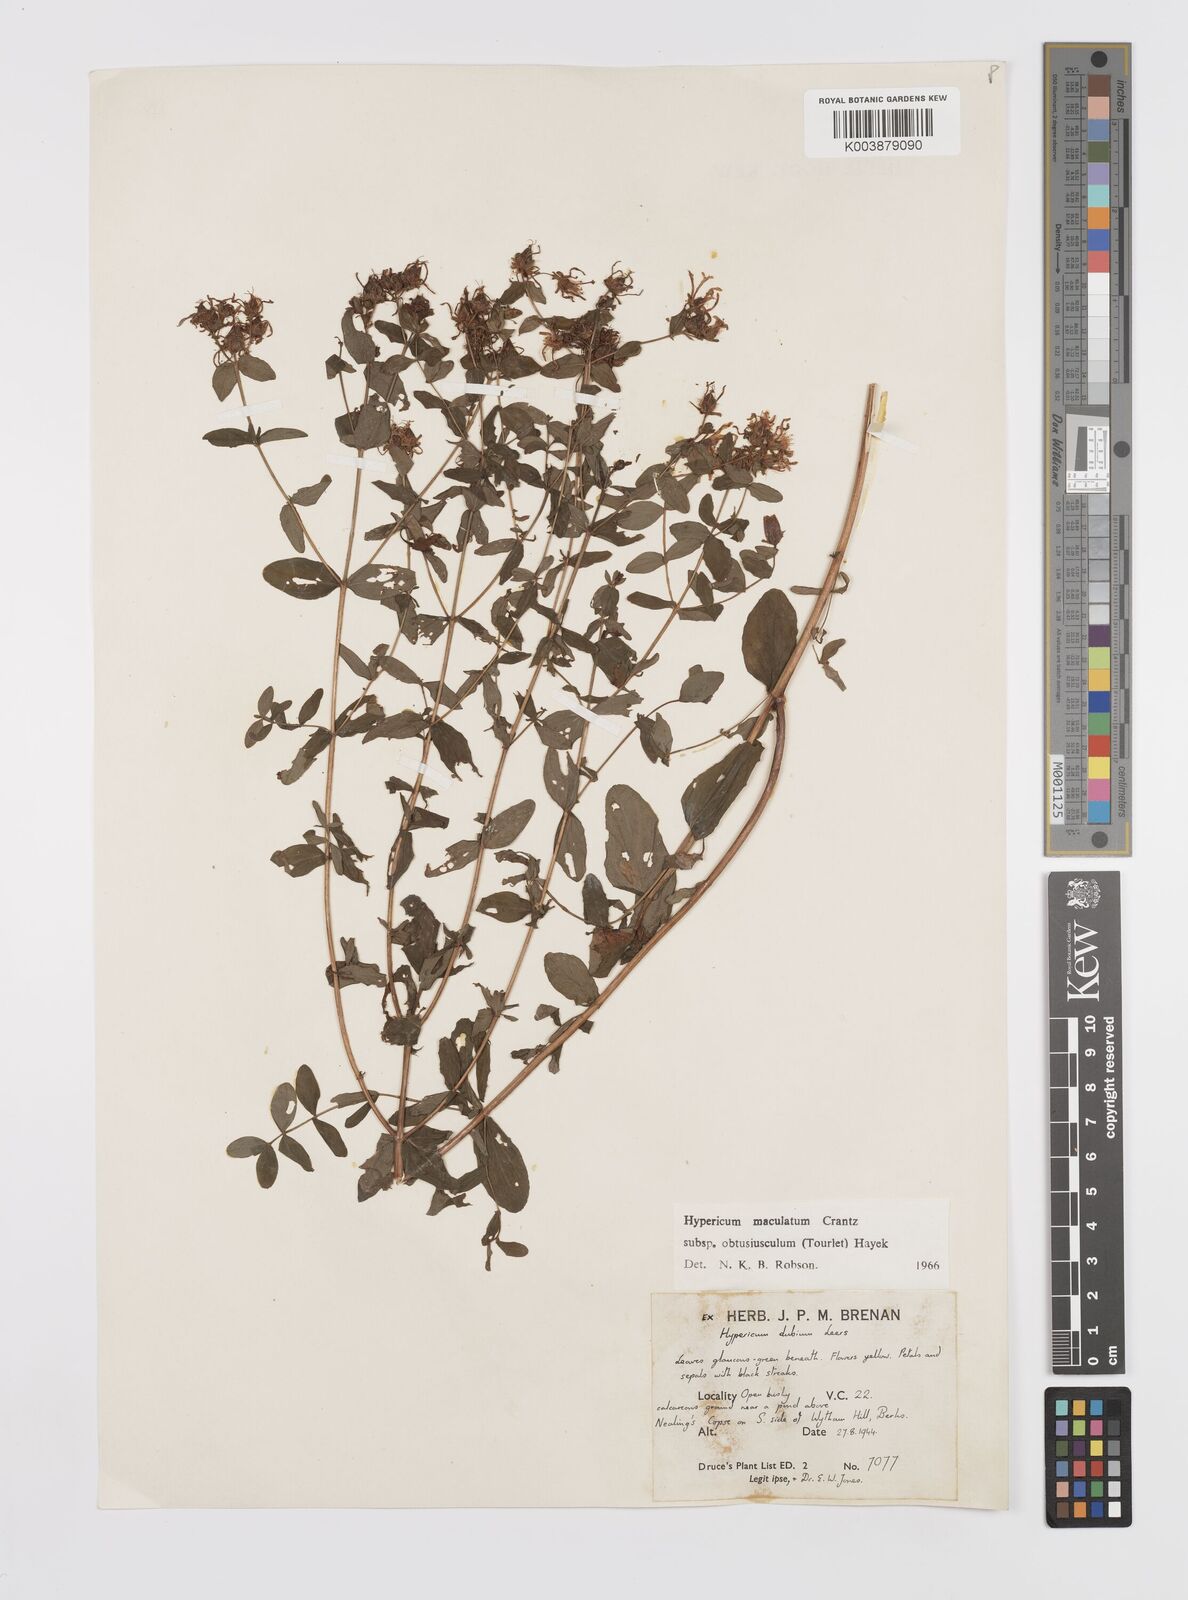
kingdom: Plantae
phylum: Tracheophyta
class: Magnoliopsida
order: Malpighiales
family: Hypericaceae
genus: Hypericum
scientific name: Hypericum dubium
